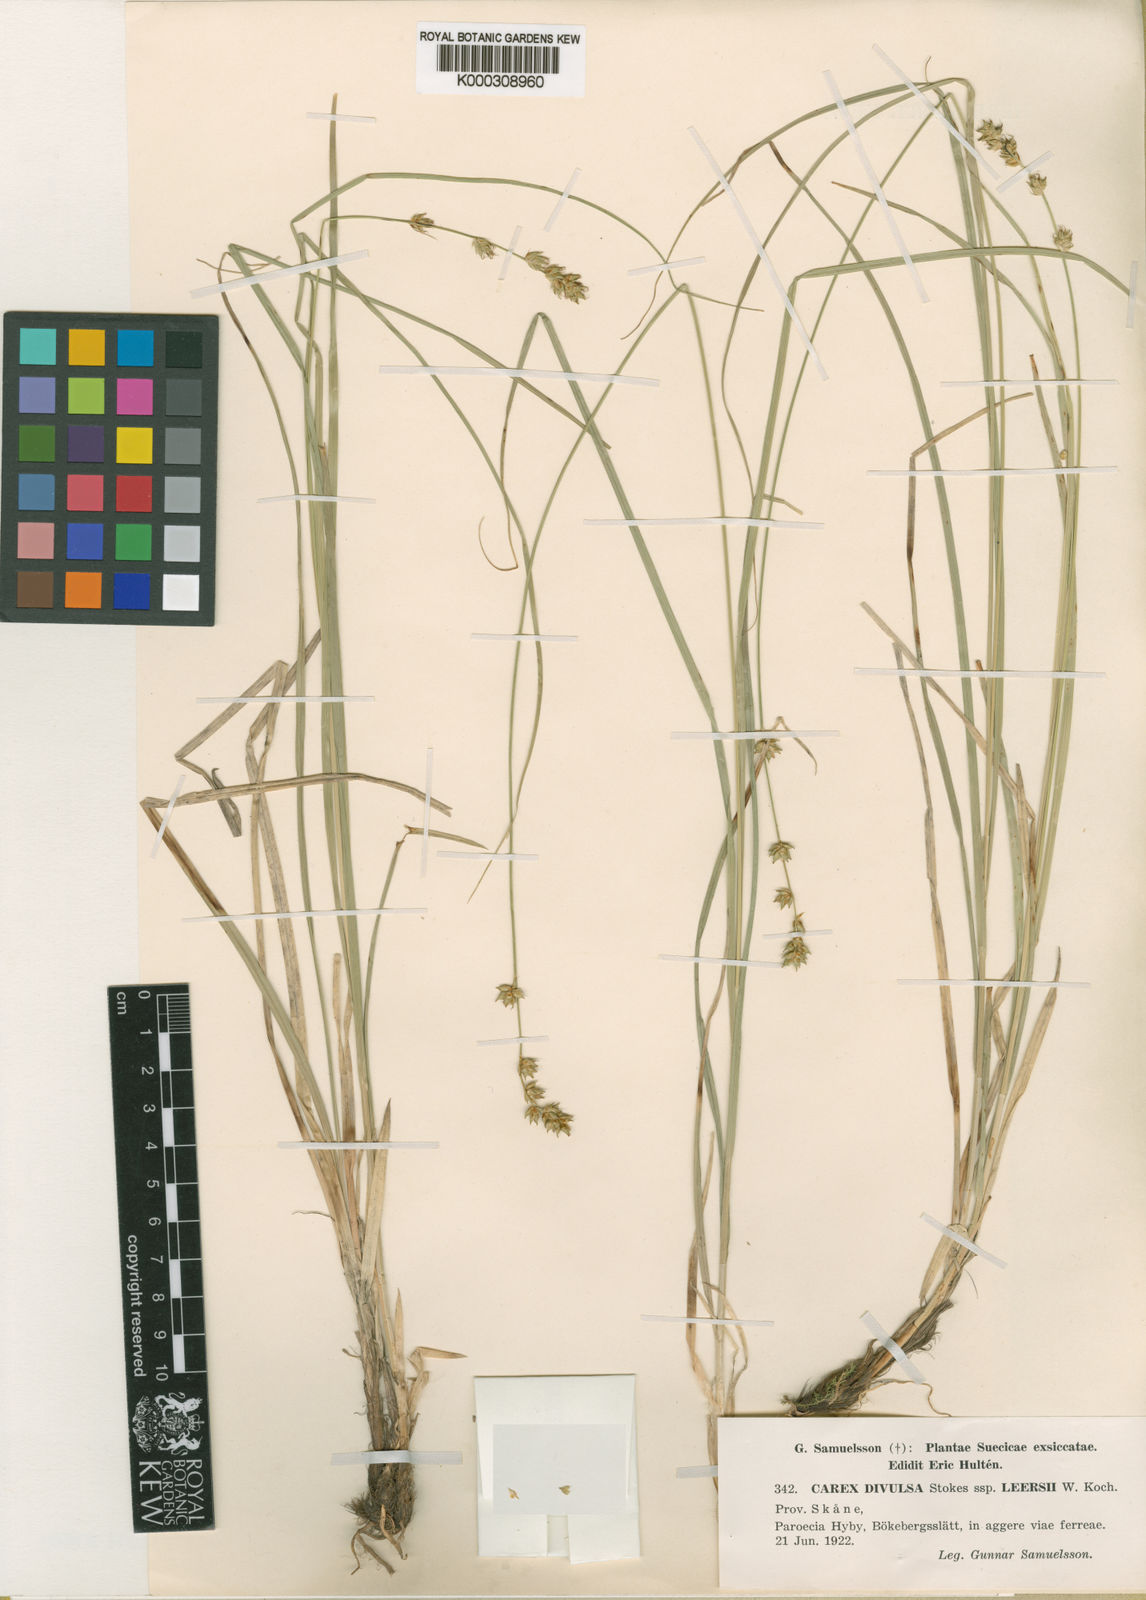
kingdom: Plantae
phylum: Tracheophyta
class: Liliopsida
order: Poales
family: Cyperaceae
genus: Carex
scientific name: Carex divulsa
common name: Grassland sedge
